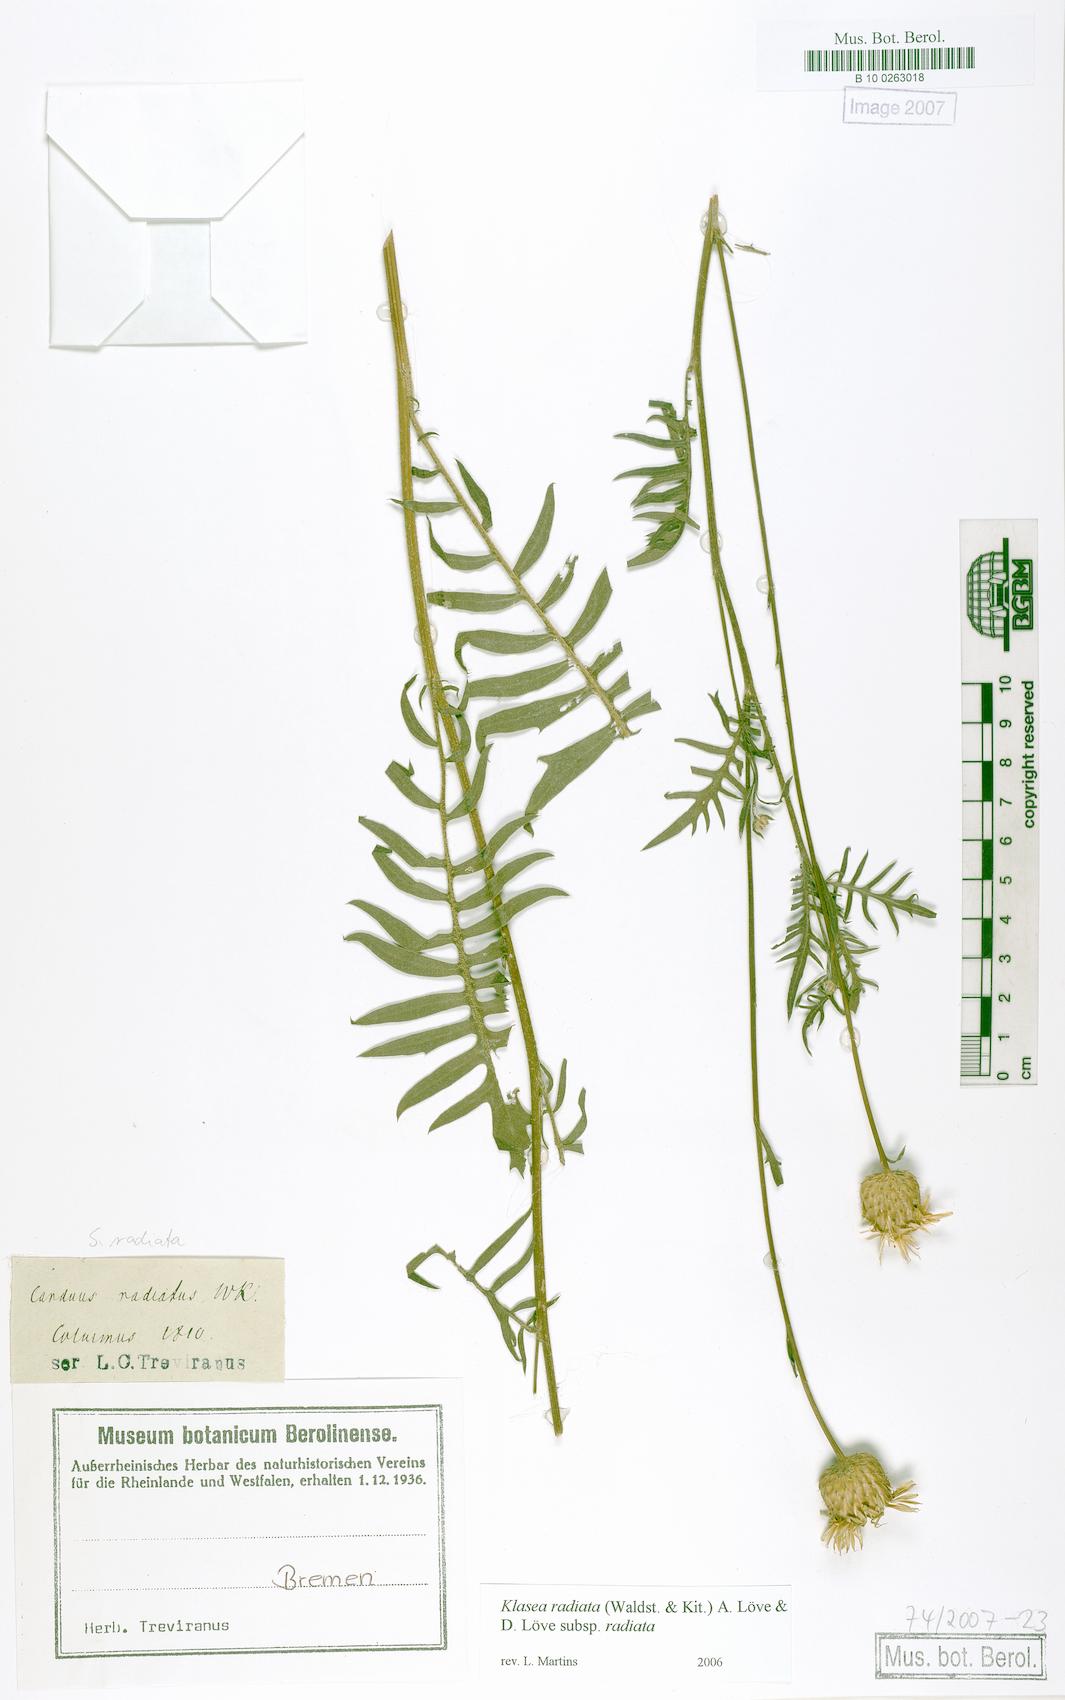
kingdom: Plantae
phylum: Tracheophyta
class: Magnoliopsida
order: Asterales
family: Asteraceae
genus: Klasea
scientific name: Klasea radiata
